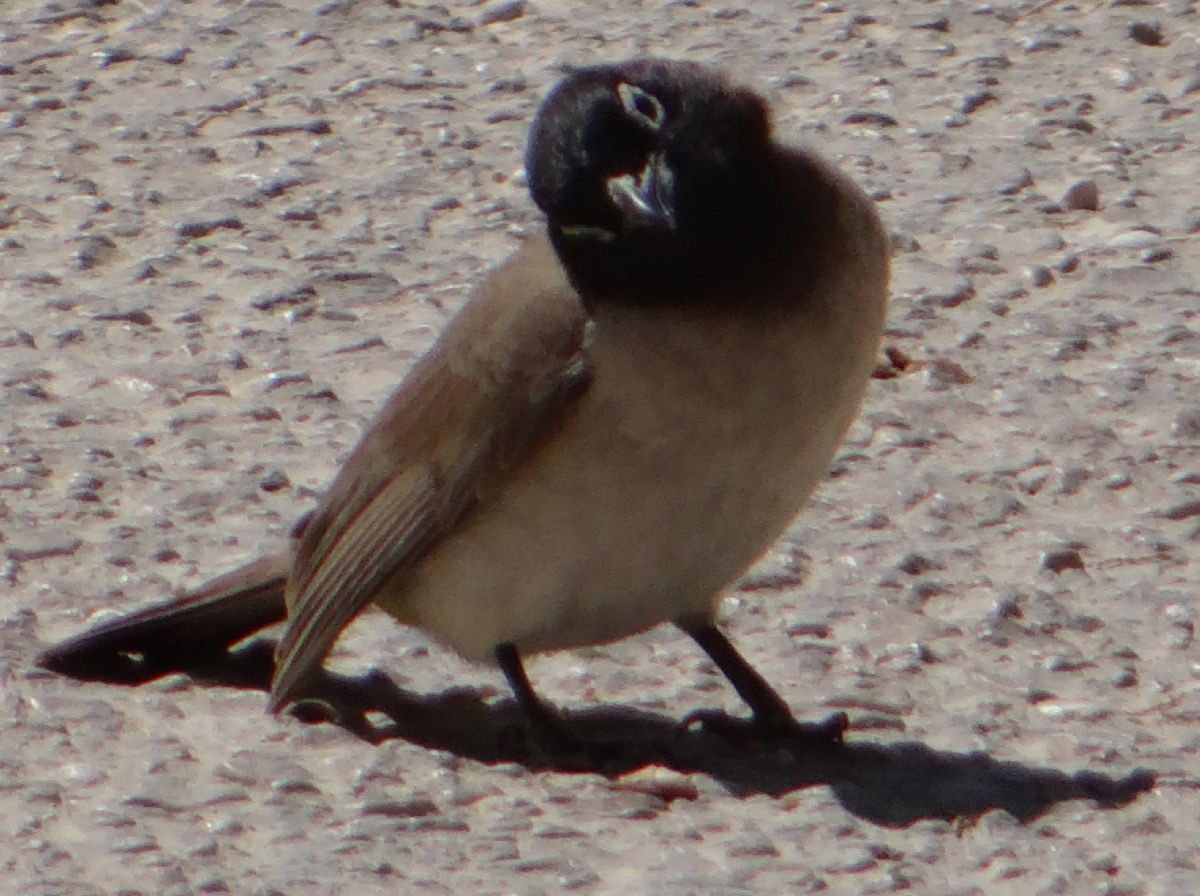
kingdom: Animalia
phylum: Chordata
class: Aves
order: Passeriformes
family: Pycnonotidae
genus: Pycnonotus
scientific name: Pycnonotus xanthopygos
